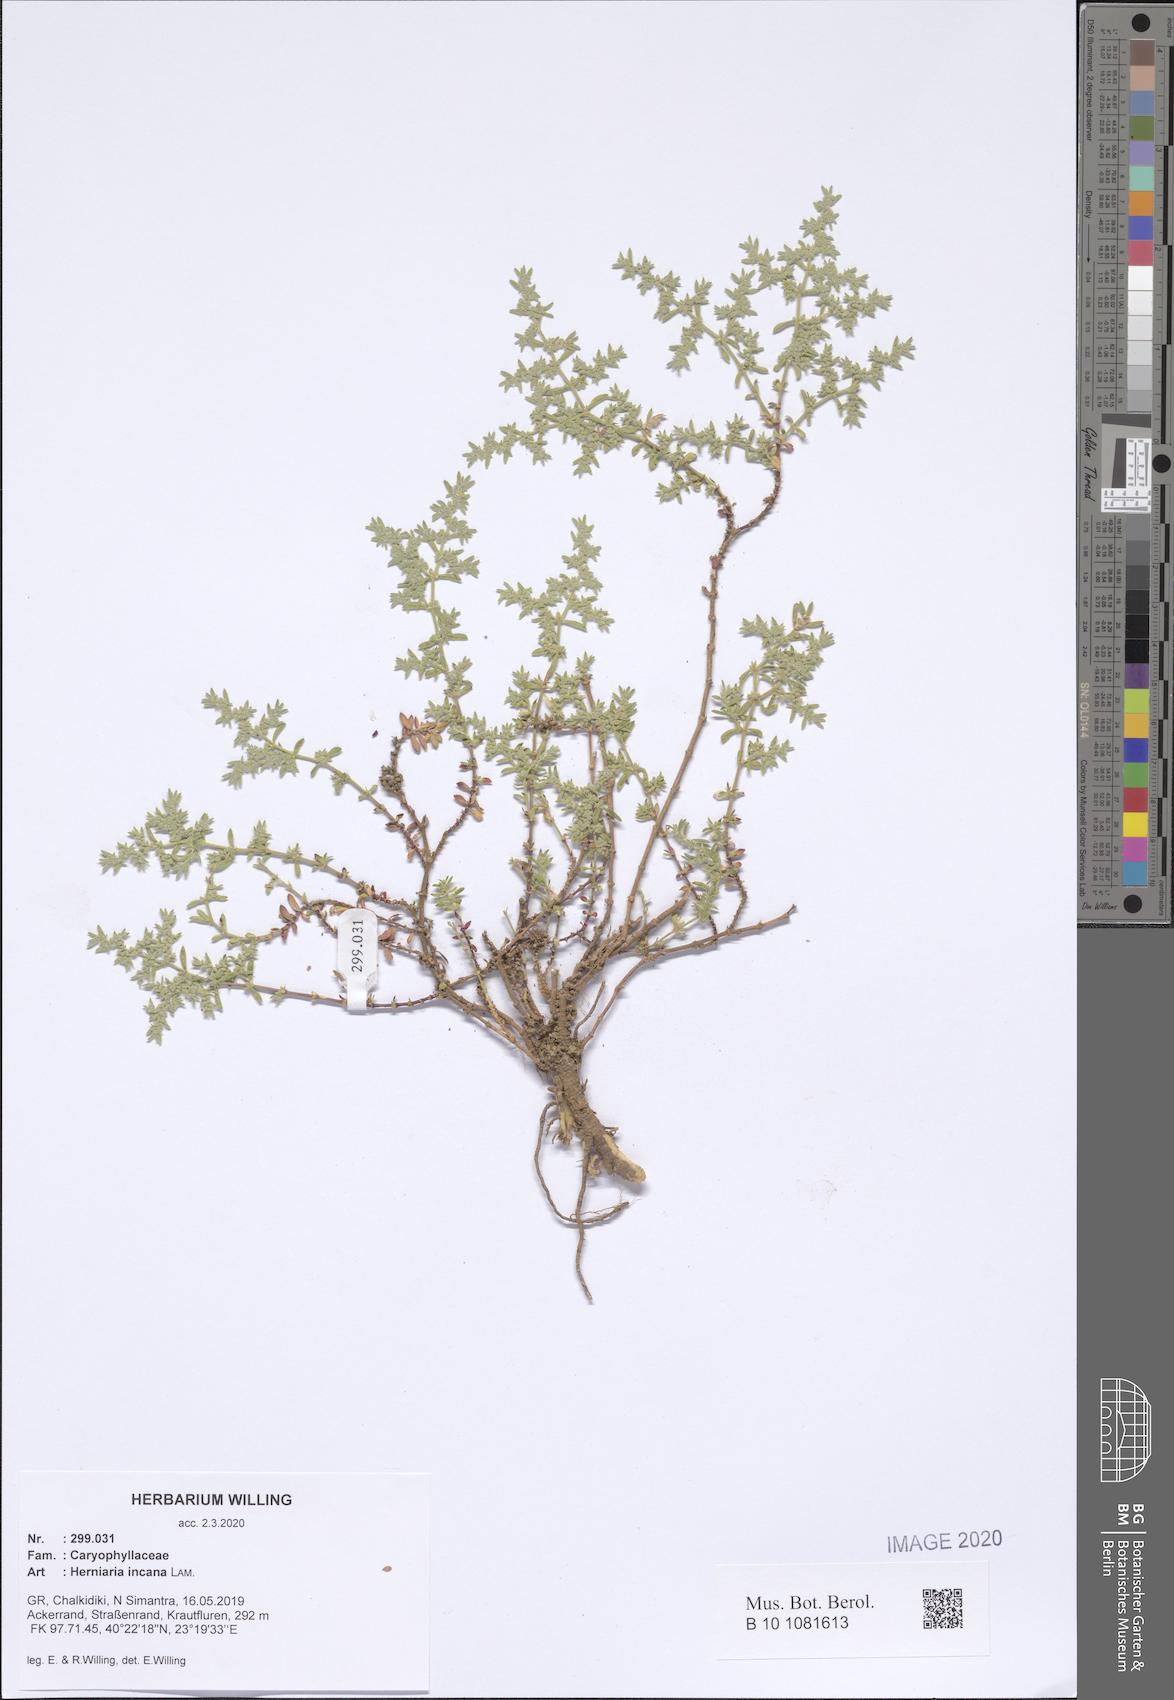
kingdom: Plantae
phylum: Tracheophyta
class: Magnoliopsida
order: Caryophyllales
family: Caryophyllaceae
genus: Herniaria
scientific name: Herniaria incana
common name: Gray rupturewort
